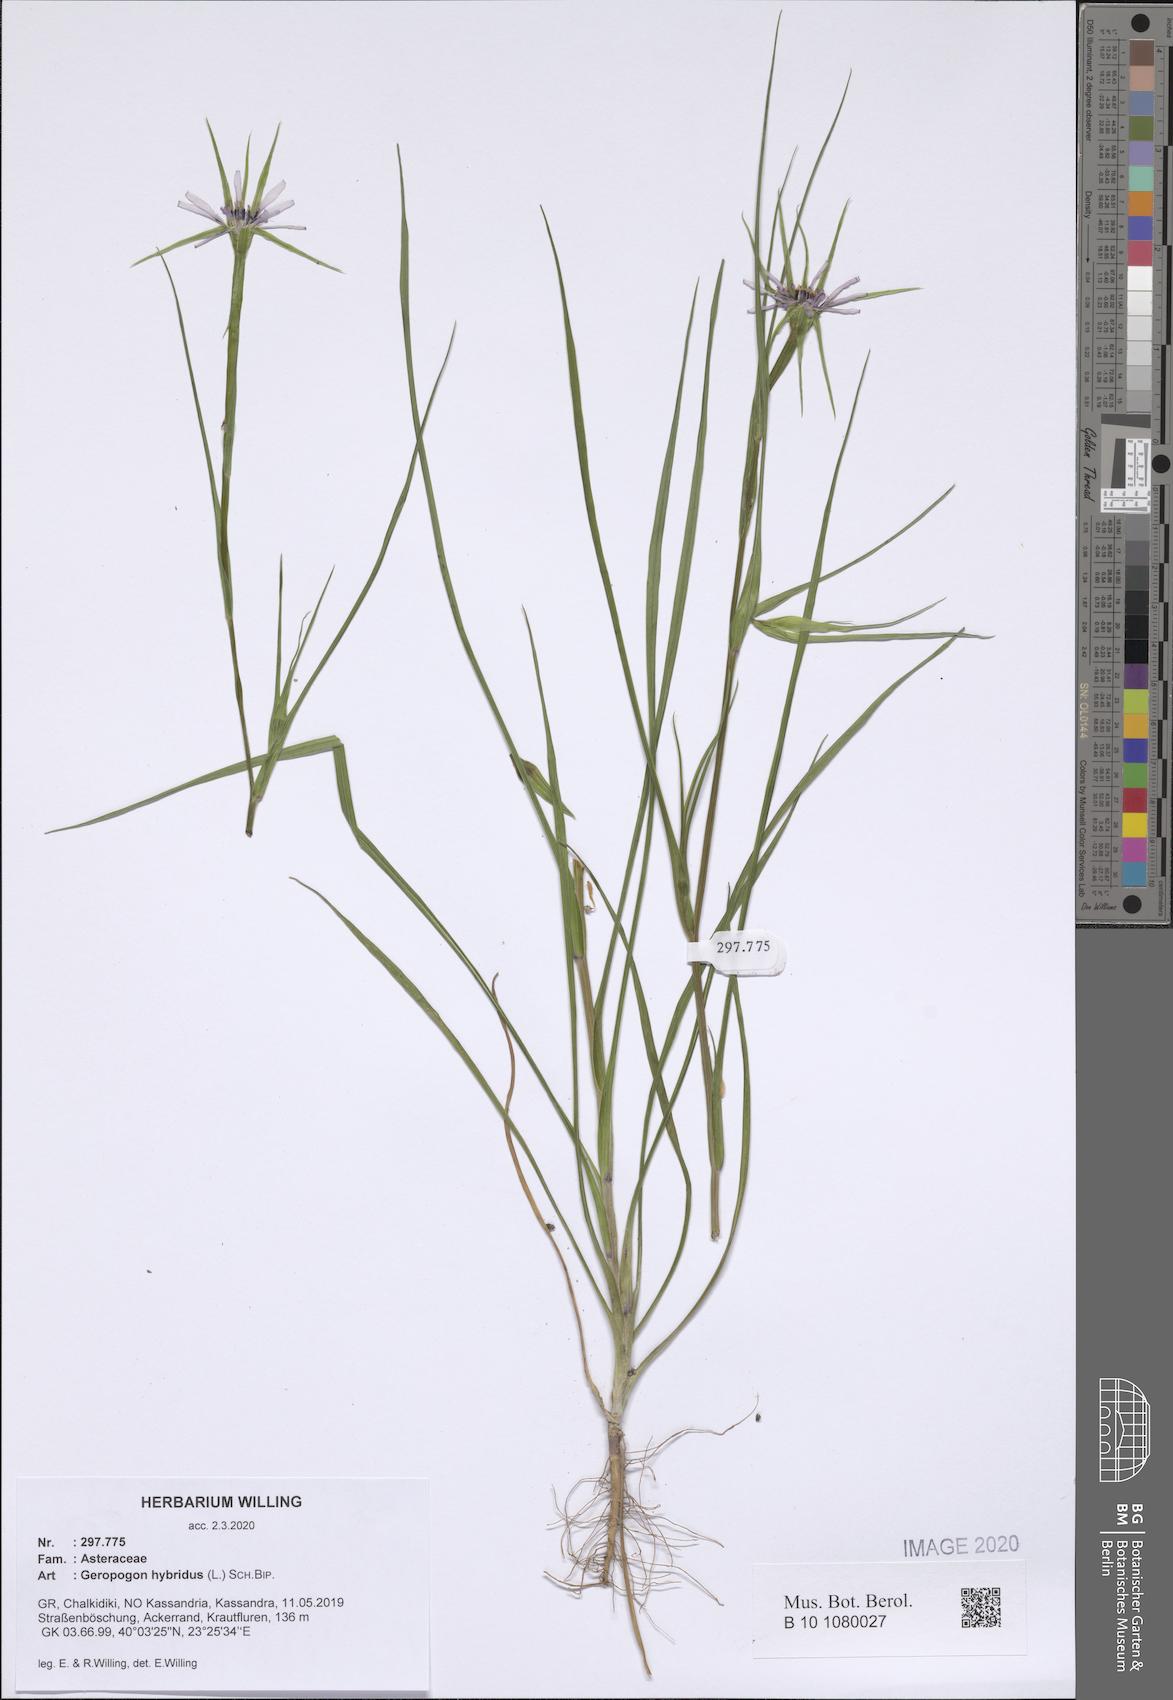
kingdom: Plantae
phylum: Tracheophyta
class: Magnoliopsida
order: Asterales
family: Asteraceae
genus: Geropogon
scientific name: Geropogon hybridus
